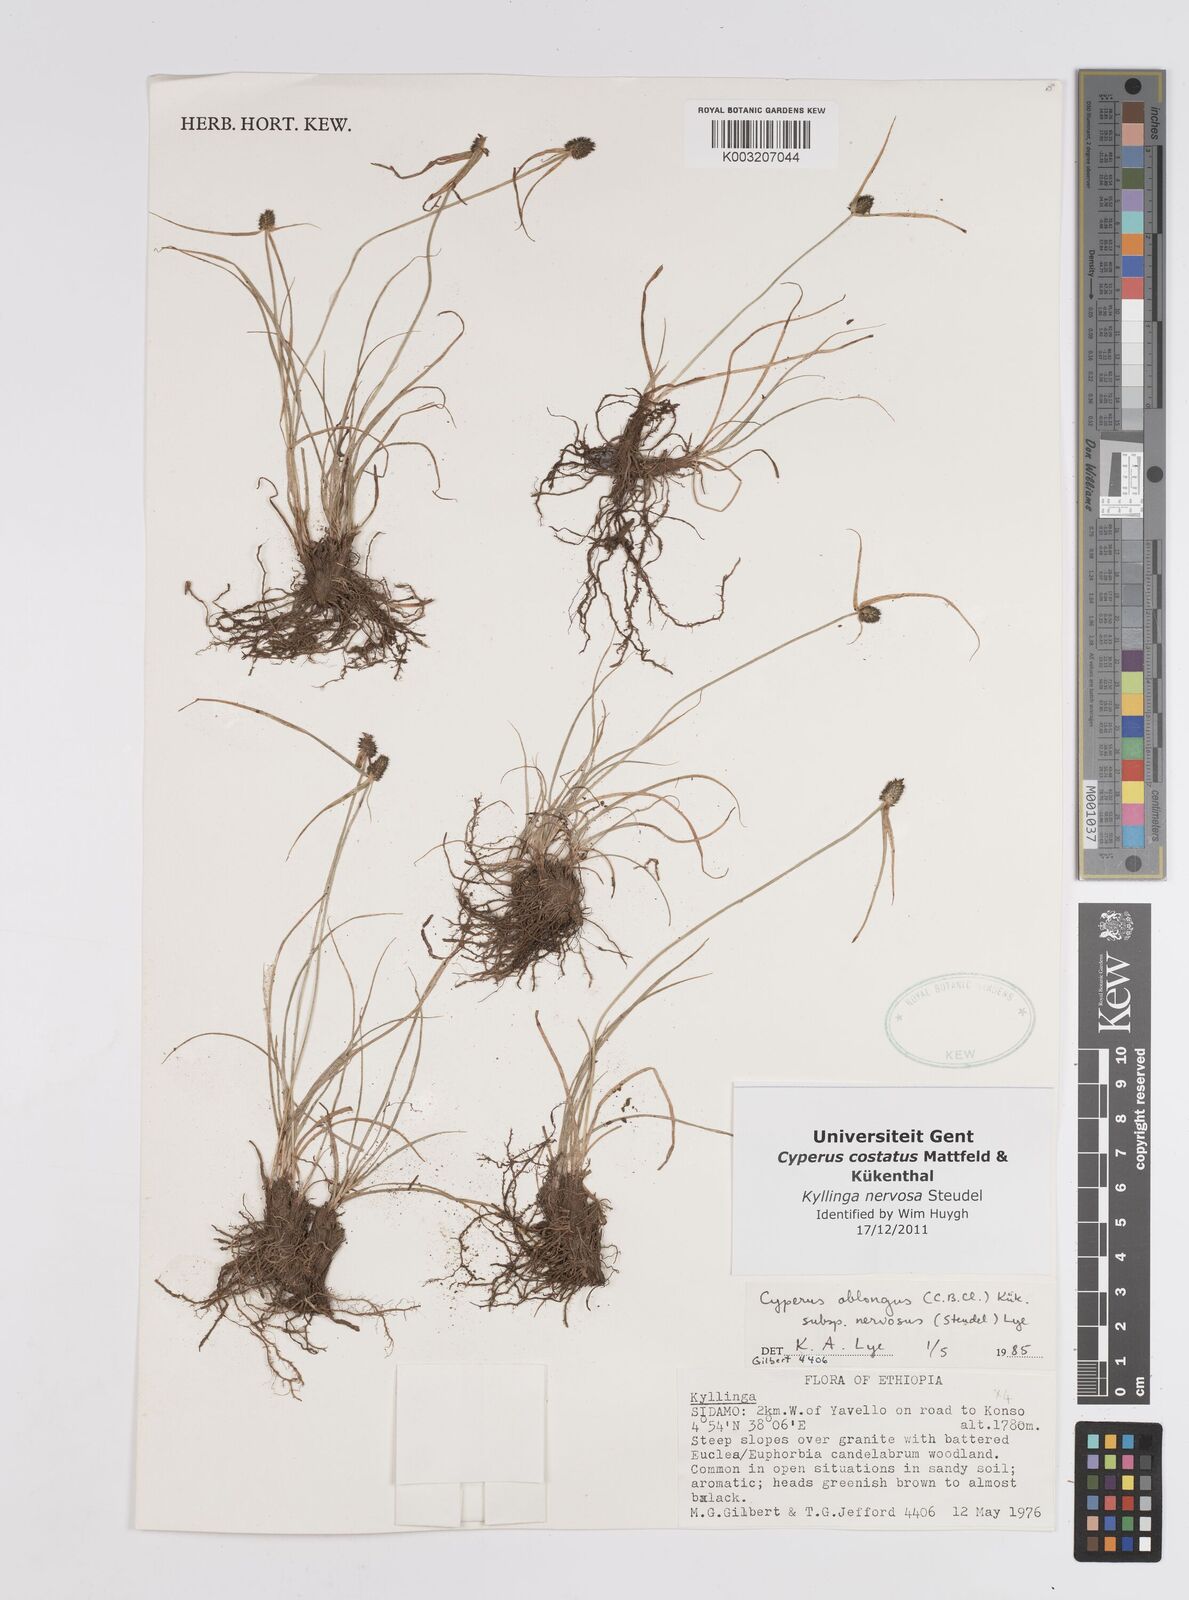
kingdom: Plantae
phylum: Tracheophyta
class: Liliopsida
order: Poales
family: Cyperaceae
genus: Cyperus
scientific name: Cyperus costatus
